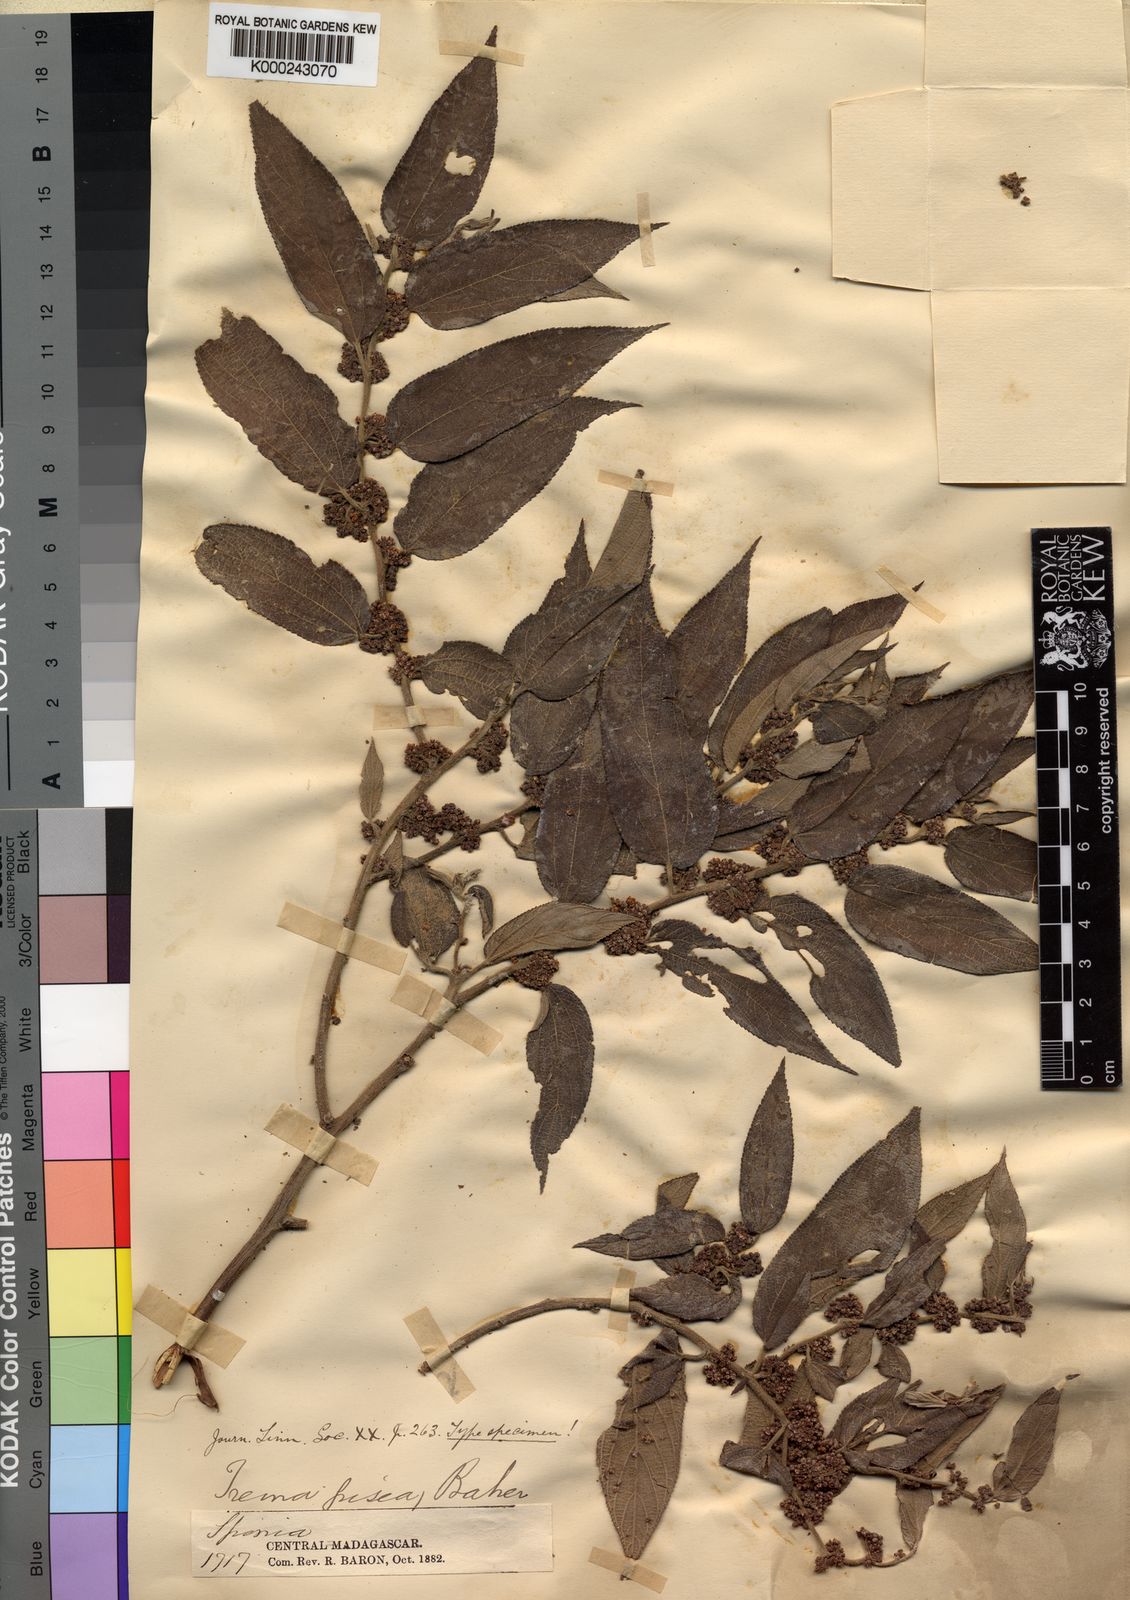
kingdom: Plantae
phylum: Tracheophyta
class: Magnoliopsida
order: Rosales
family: Cannabaceae
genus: Trema
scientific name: Trema
